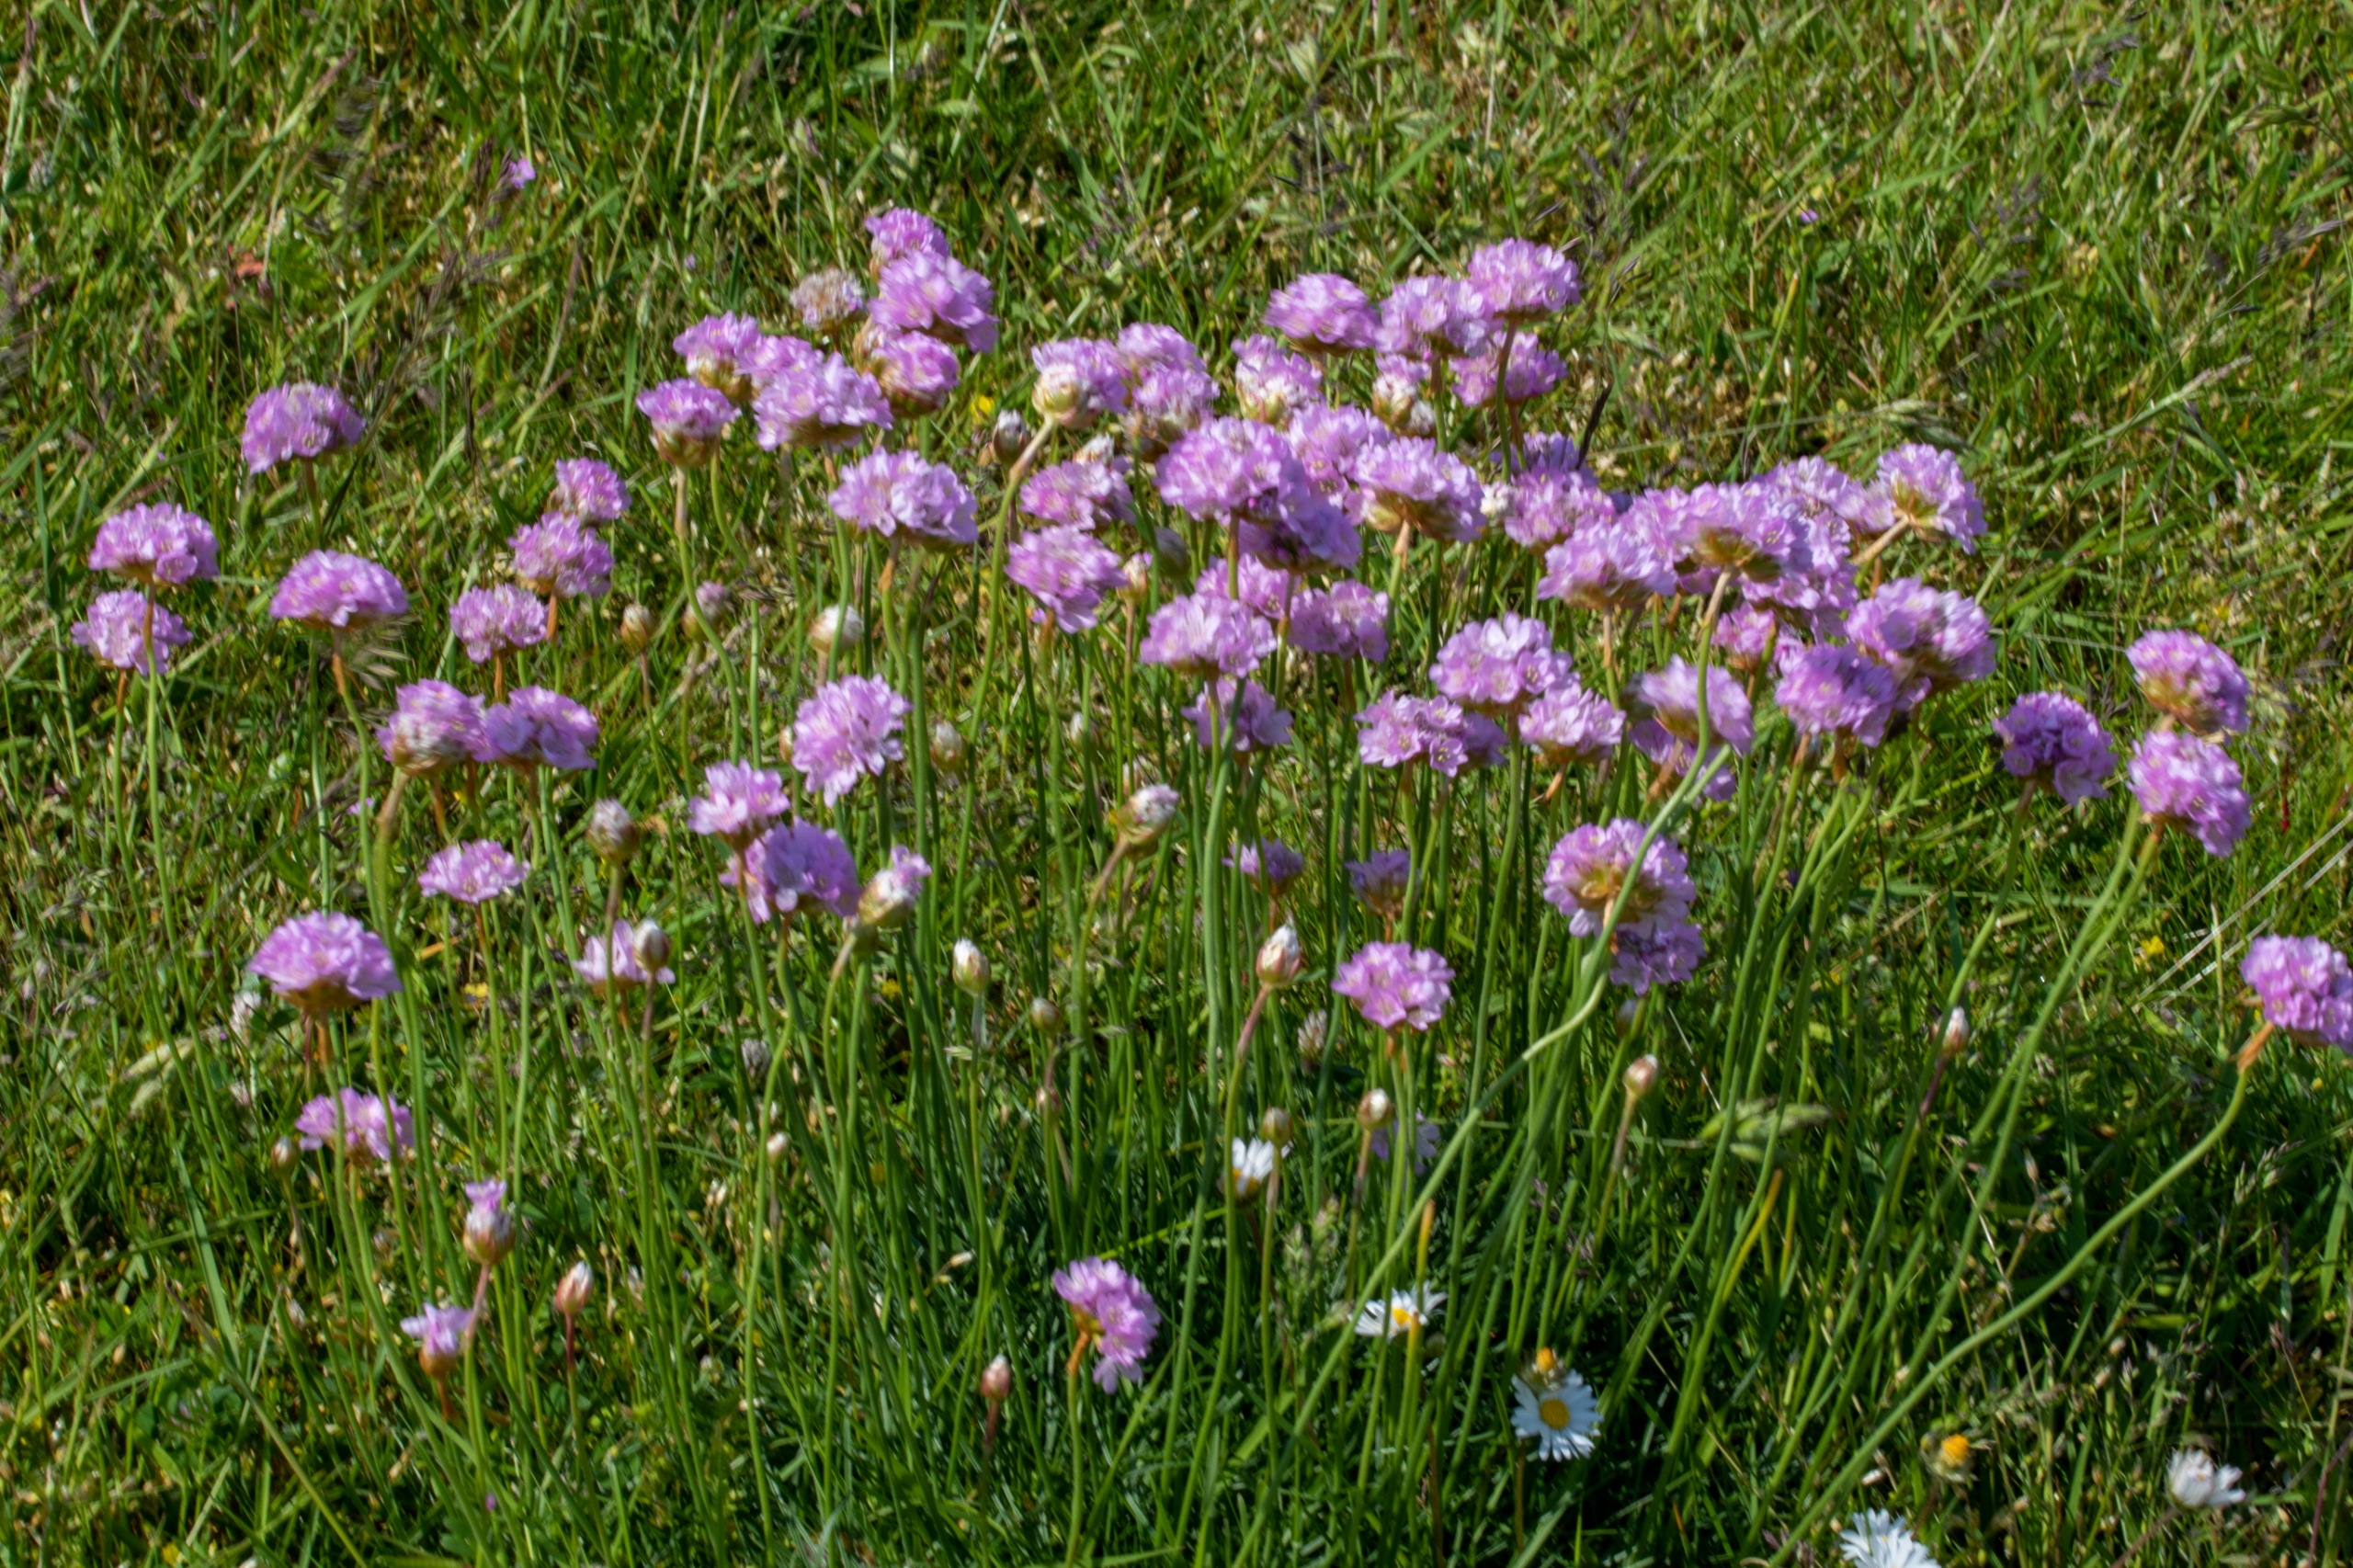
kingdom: Plantae
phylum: Tracheophyta
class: Magnoliopsida
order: Caryophyllales
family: Plumbaginaceae
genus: Armeria
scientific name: Armeria maritima
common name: Engelskgræs
